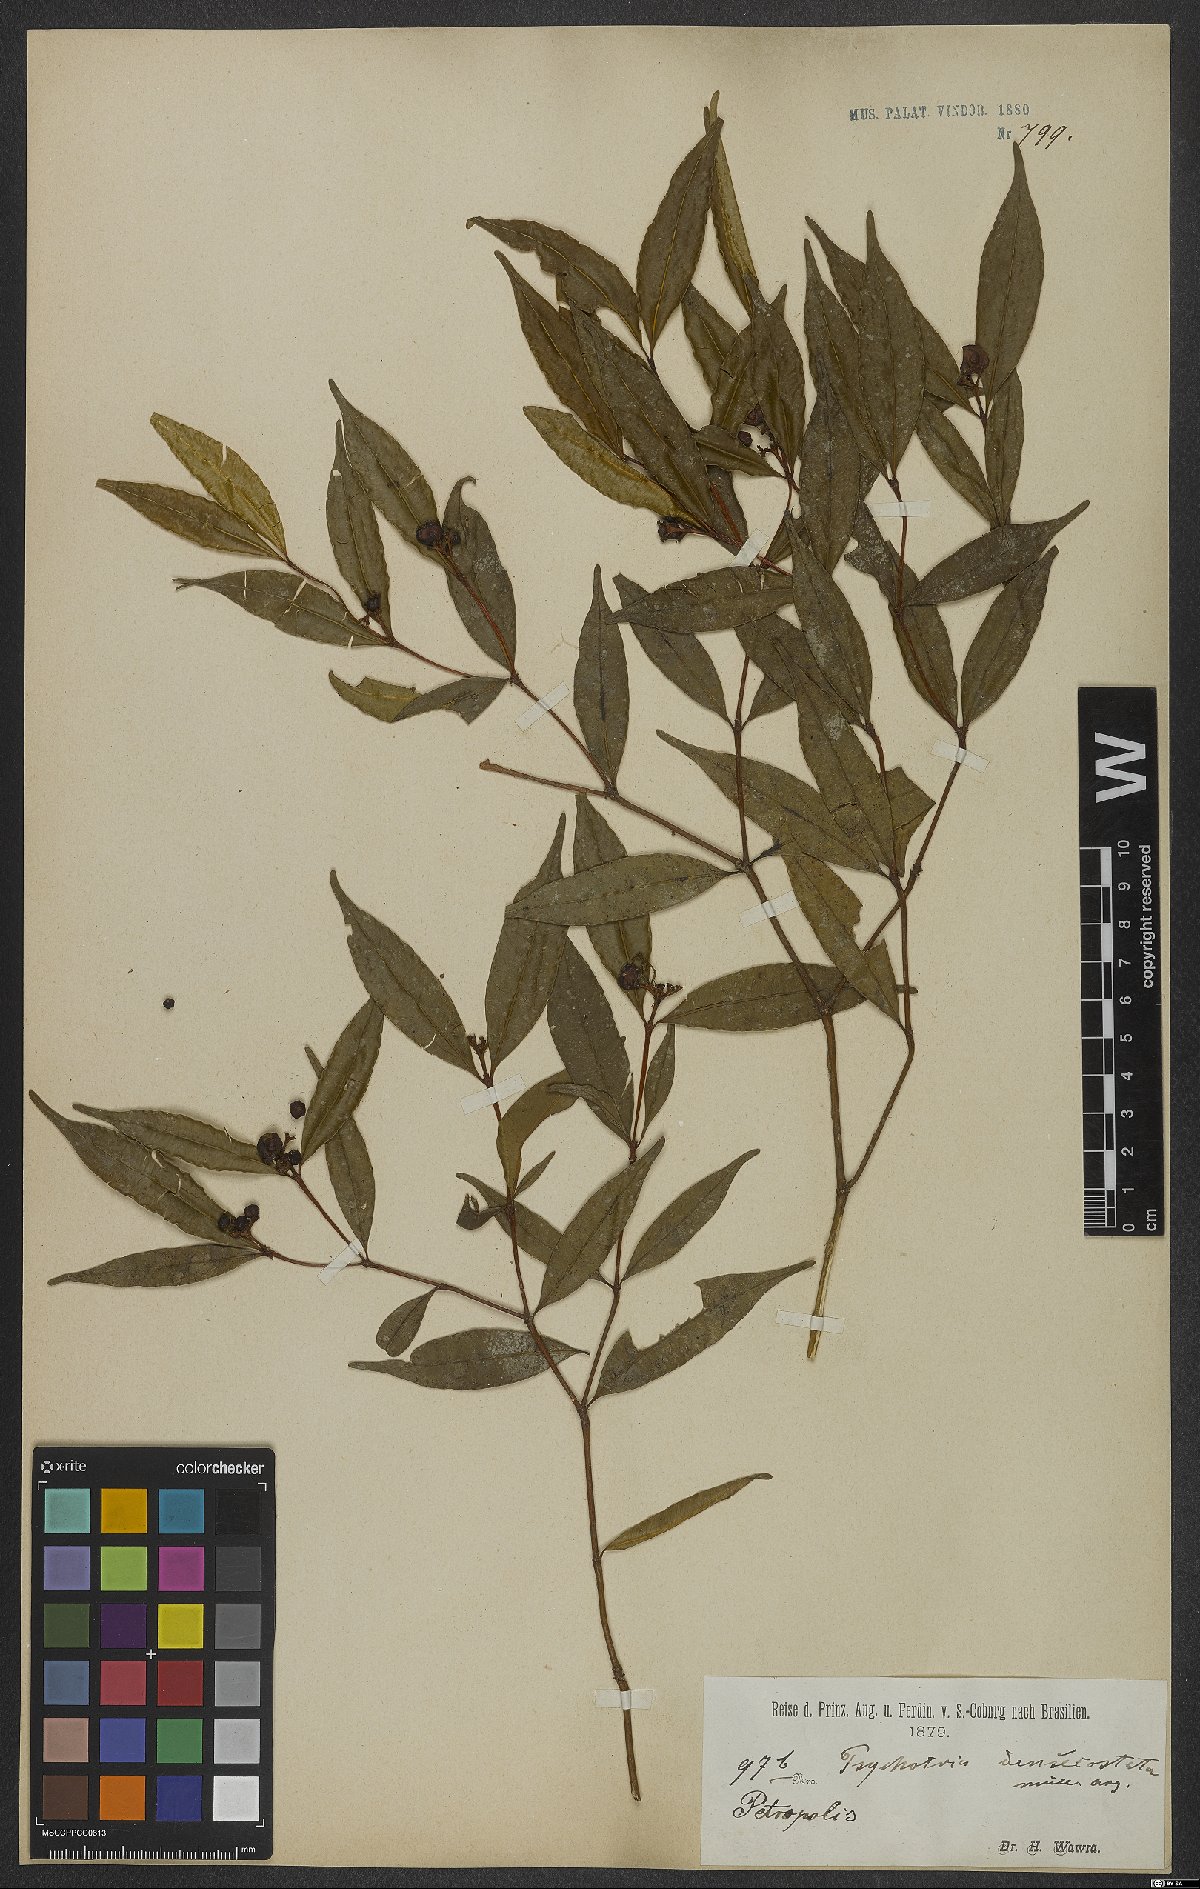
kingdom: Plantae
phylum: Tracheophyta
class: Magnoliopsida
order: Gentianales
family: Rubiaceae
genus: Psychotria
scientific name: Psychotria densicostata
